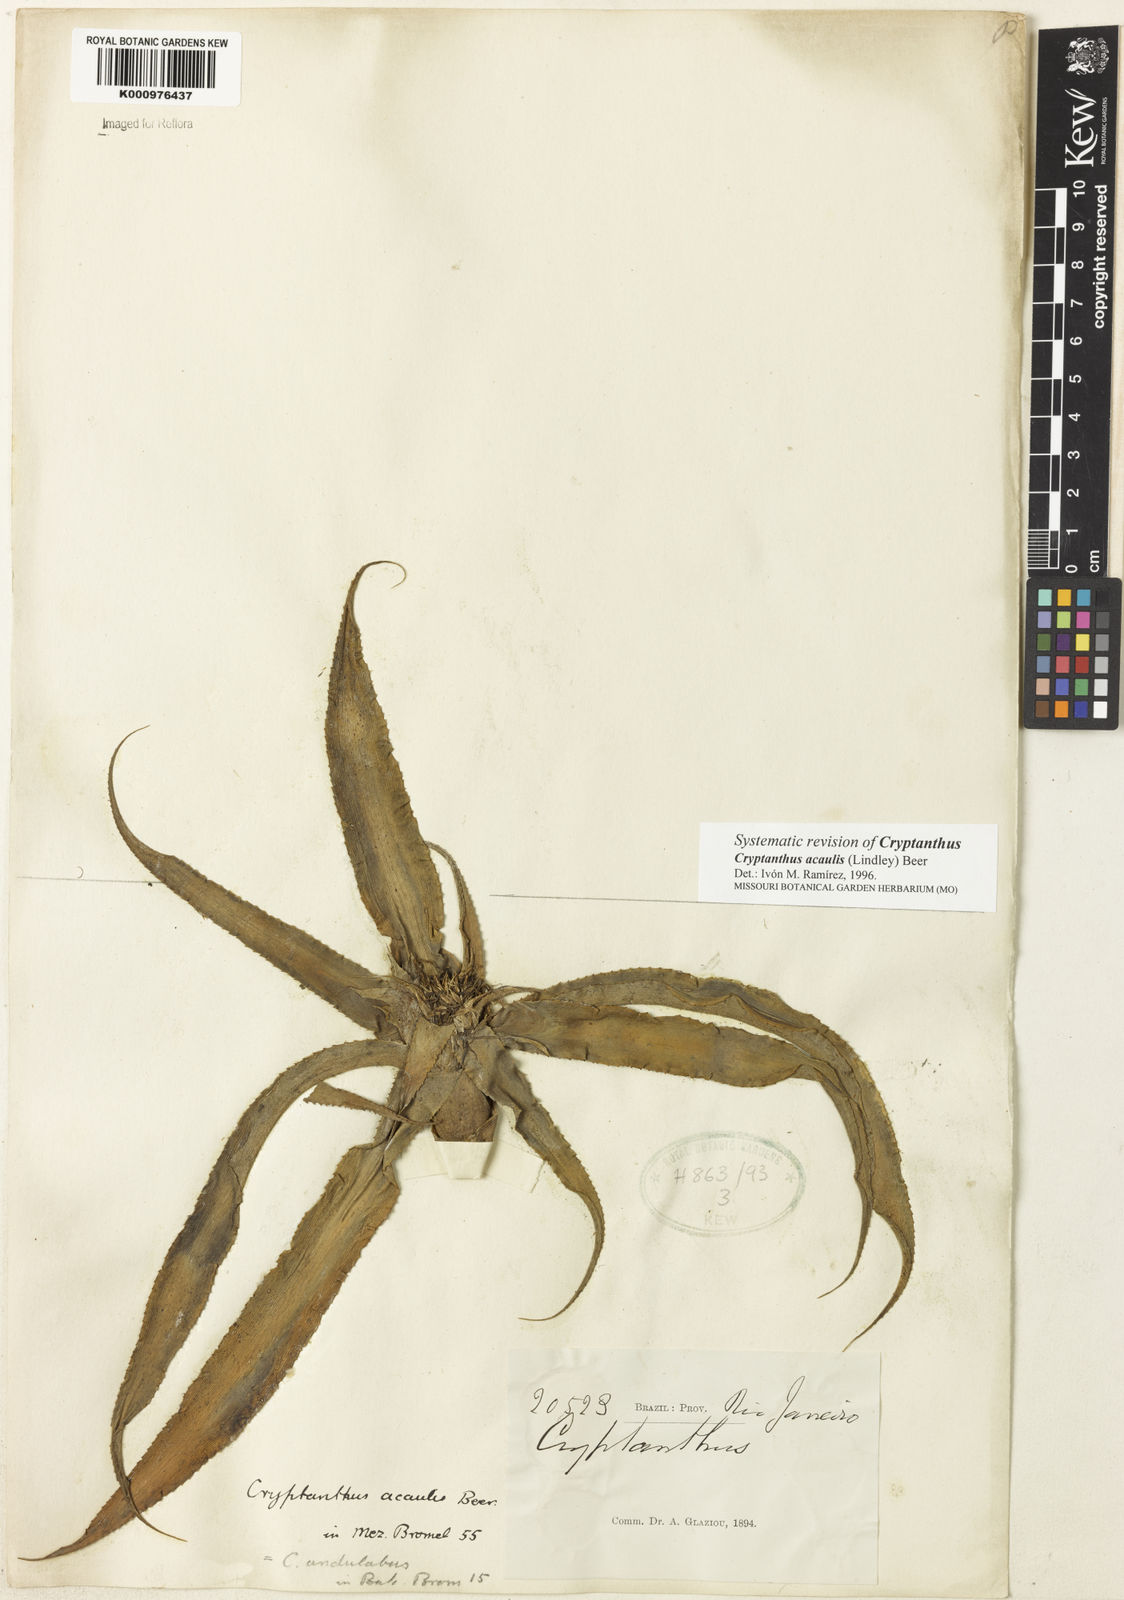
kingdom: Plantae
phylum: Tracheophyta
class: Liliopsida
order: Poales
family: Bromeliaceae
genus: Cryptanthus
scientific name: Cryptanthus acaulis
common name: Starfishplant
